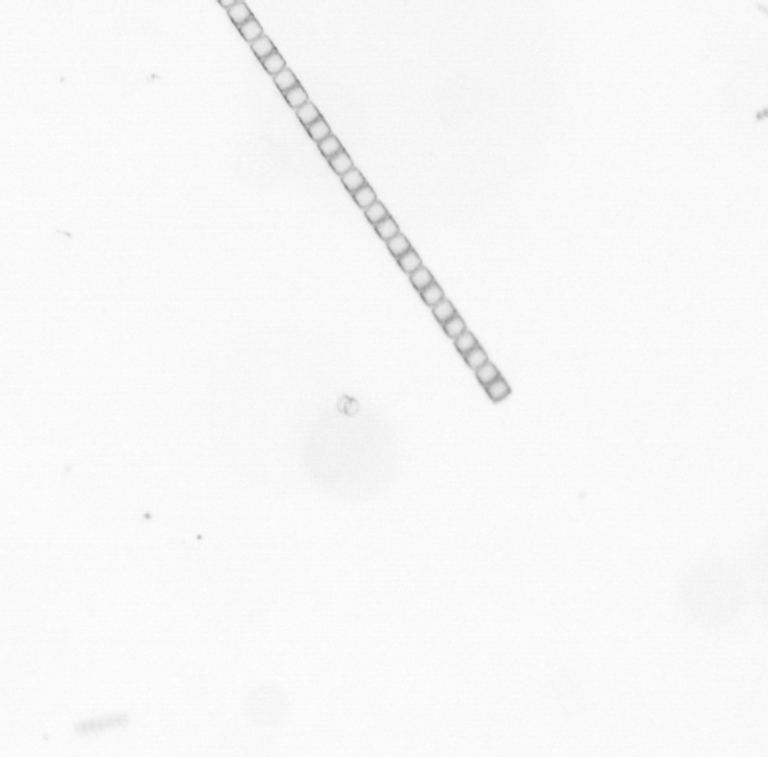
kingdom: Chromista
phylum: Ochrophyta
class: Bacillariophyceae
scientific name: Bacillariophyceae
